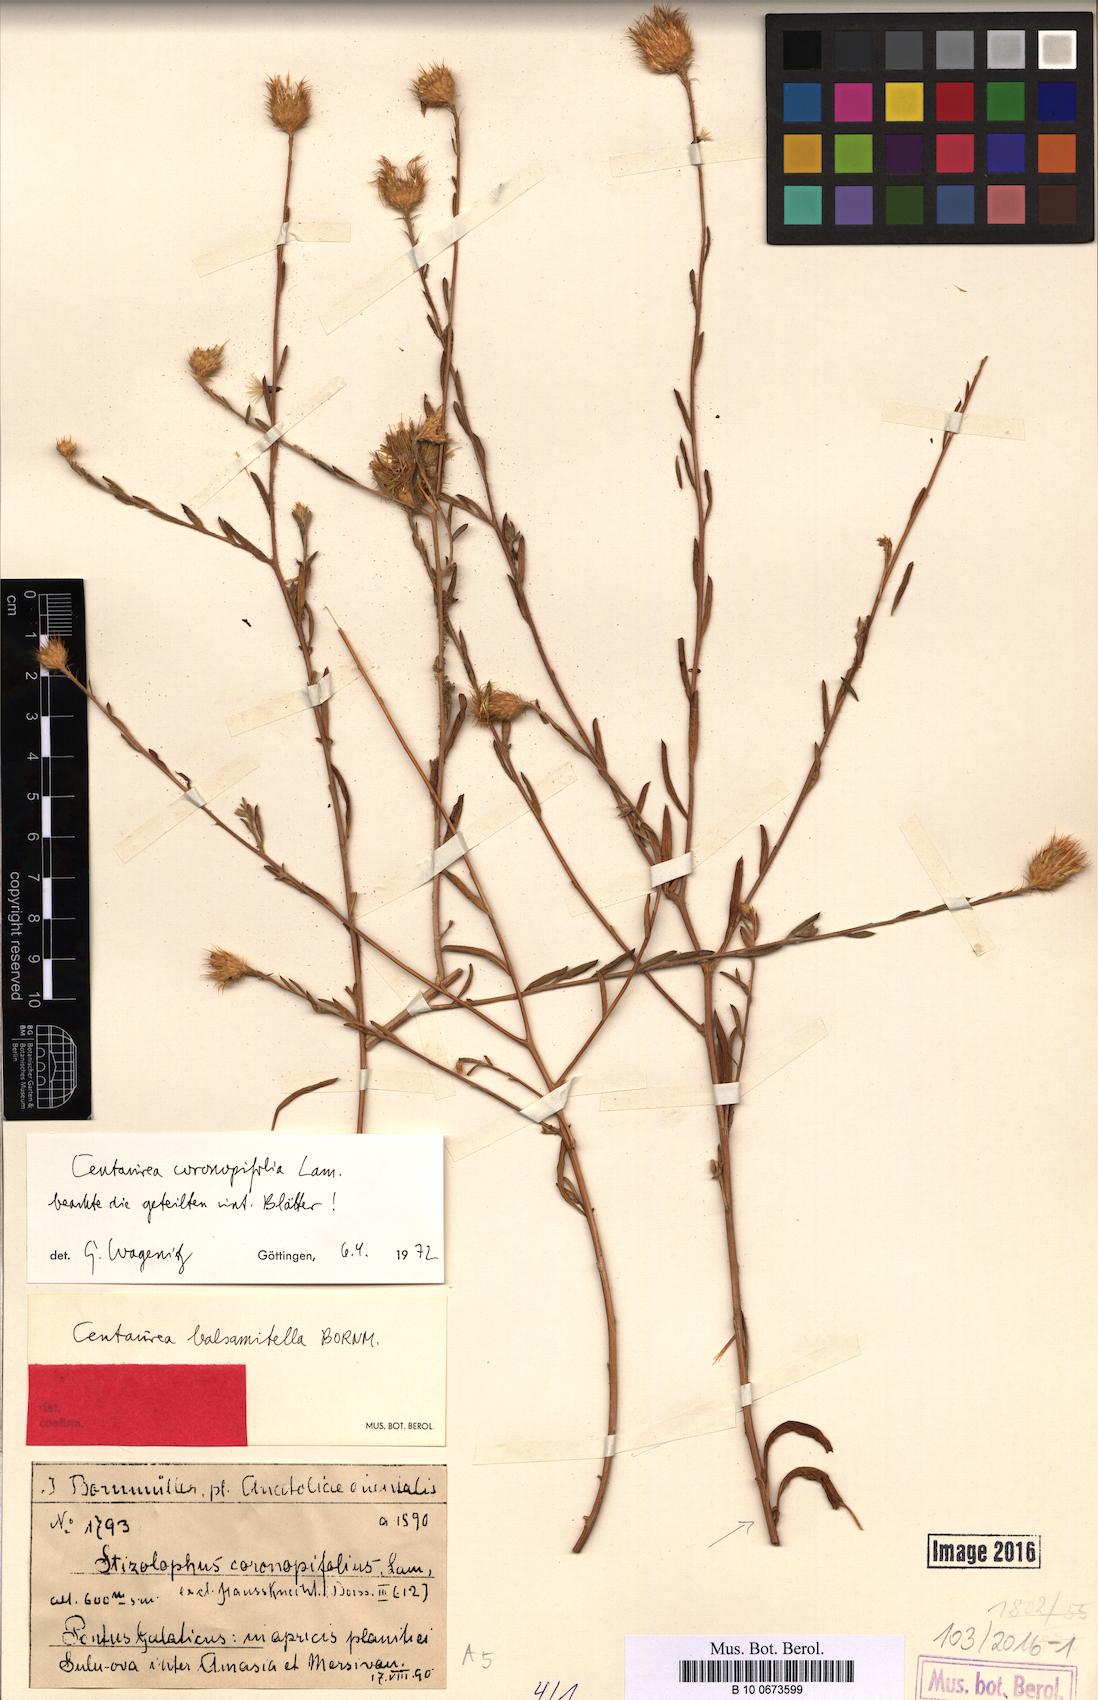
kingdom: Plantae
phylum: Tracheophyta
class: Magnoliopsida
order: Asterales
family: Asteraceae
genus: Stizolophus
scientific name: Stizolophus coronopifolius
